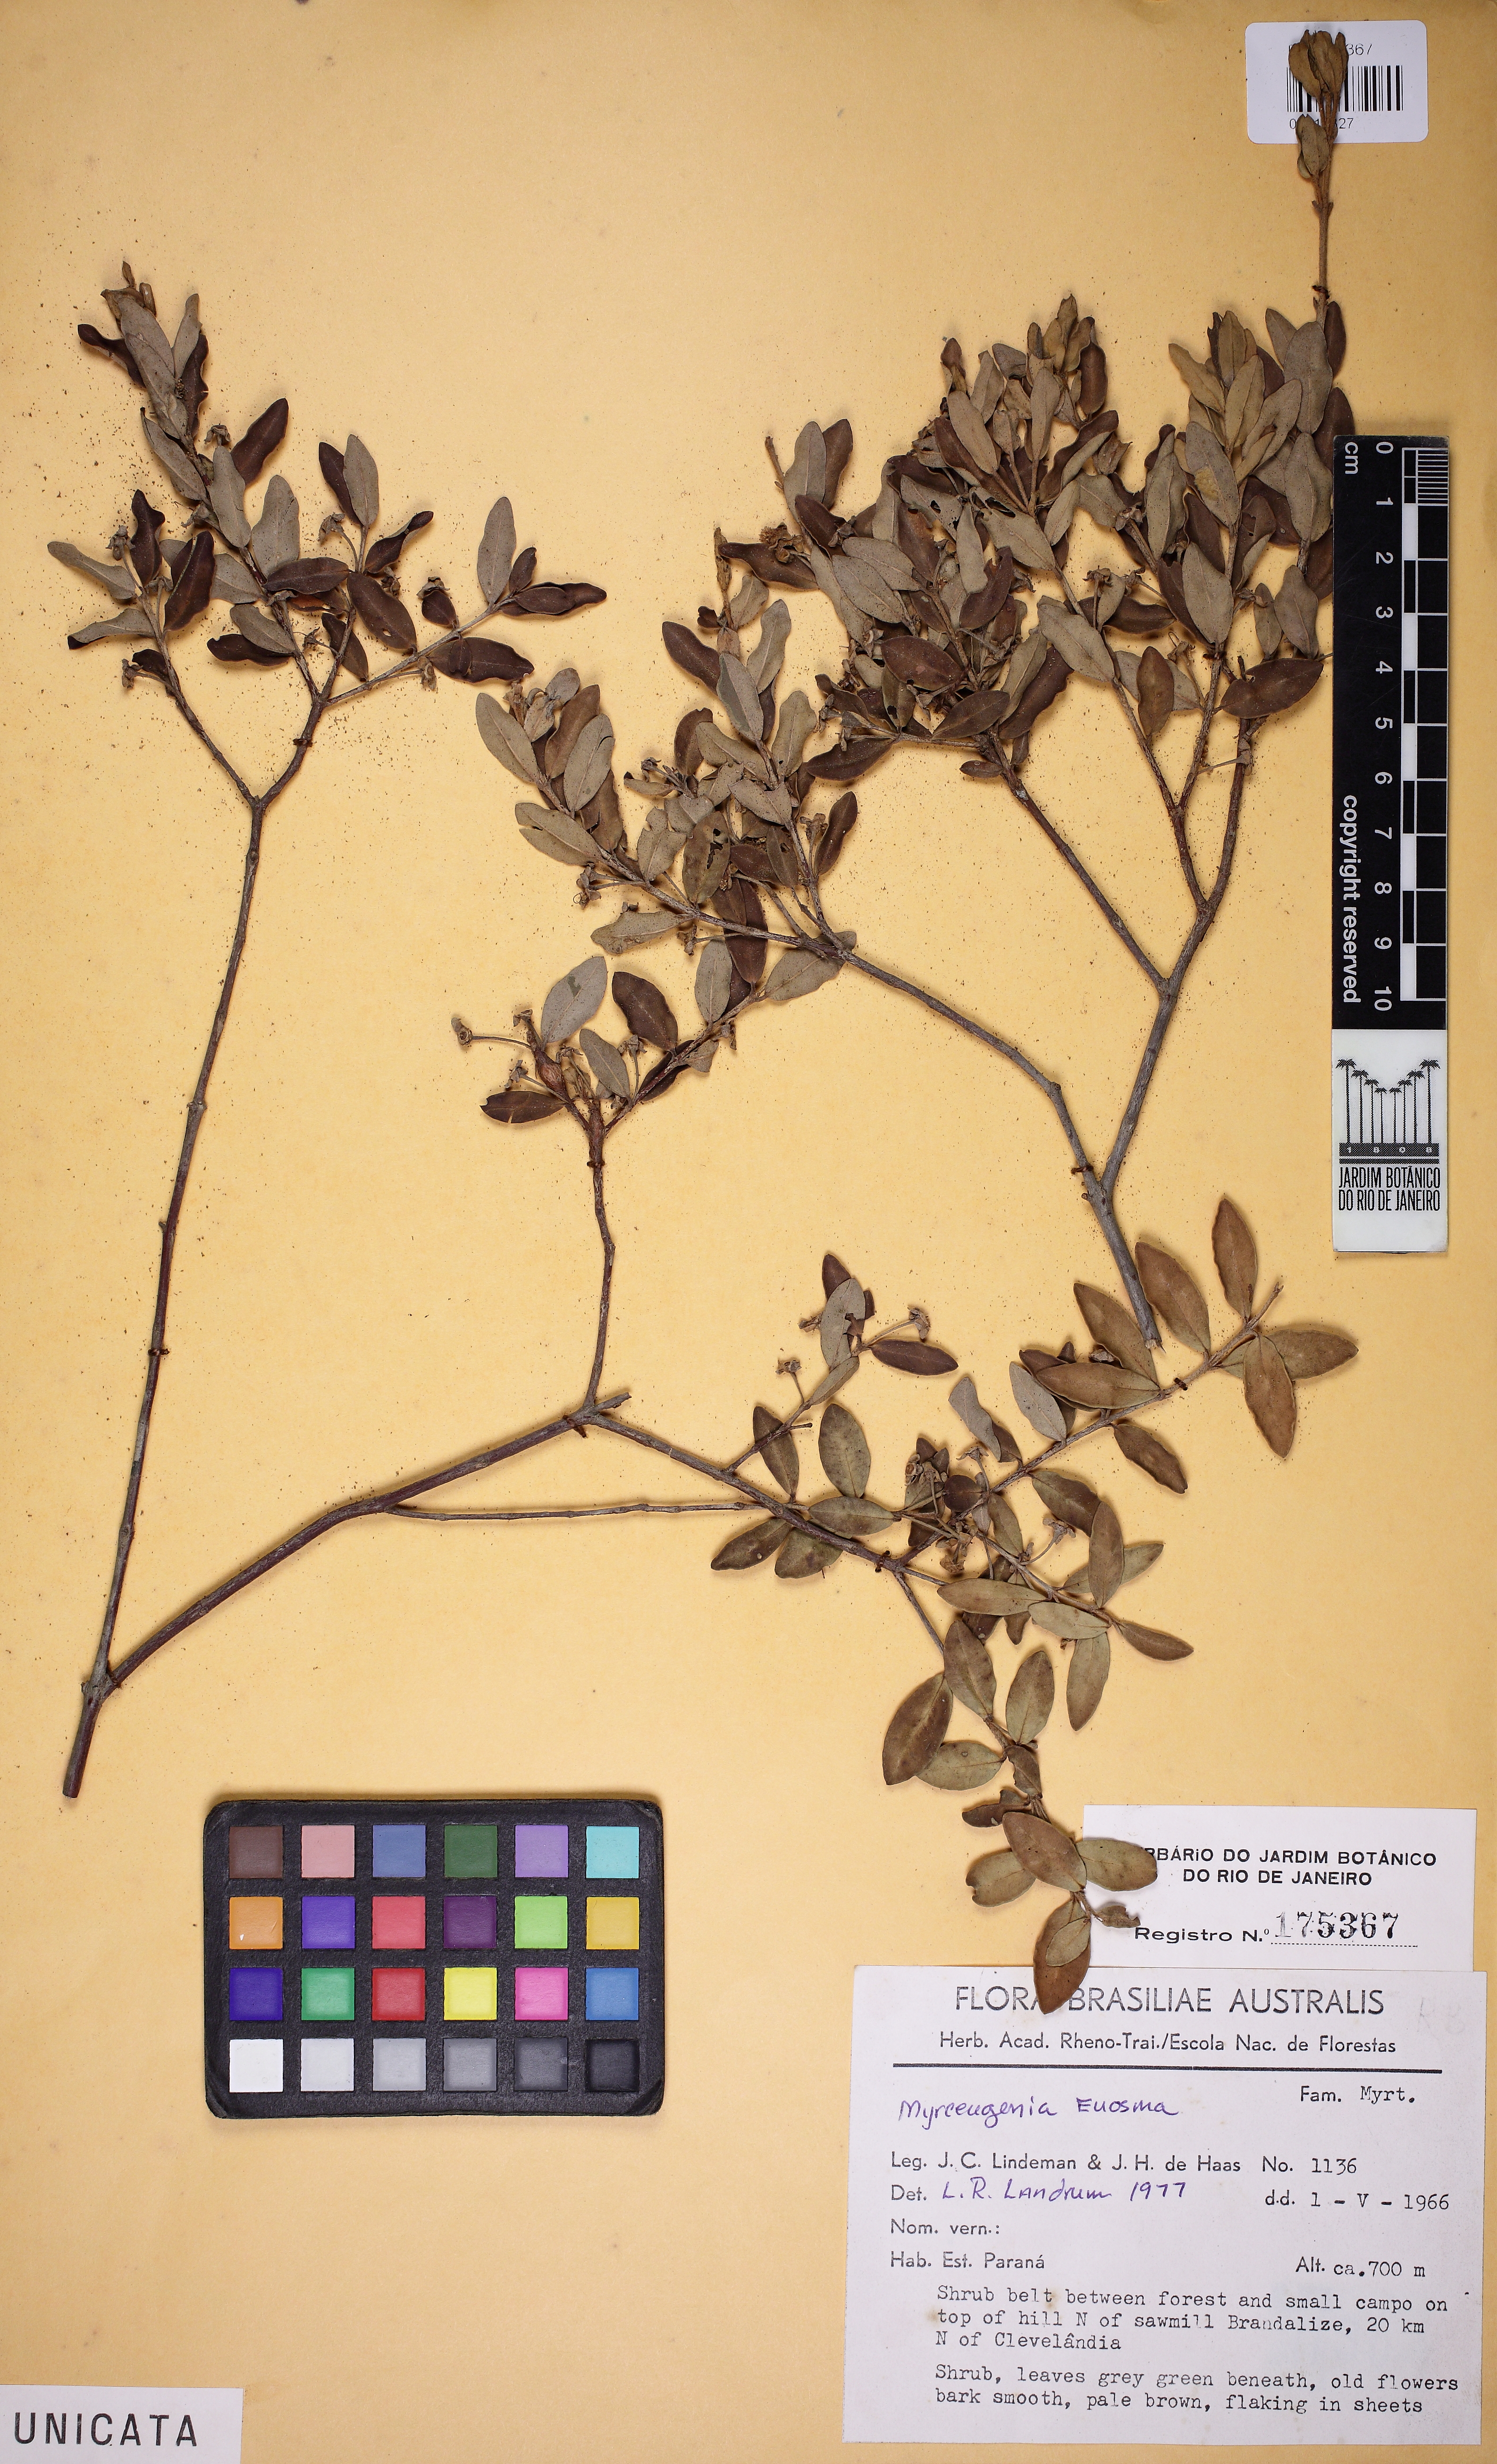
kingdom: Plantae
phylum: Tracheophyta
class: Magnoliopsida
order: Myrtales
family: Myrtaceae
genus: Myrceugenia
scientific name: Myrceugenia euosma
